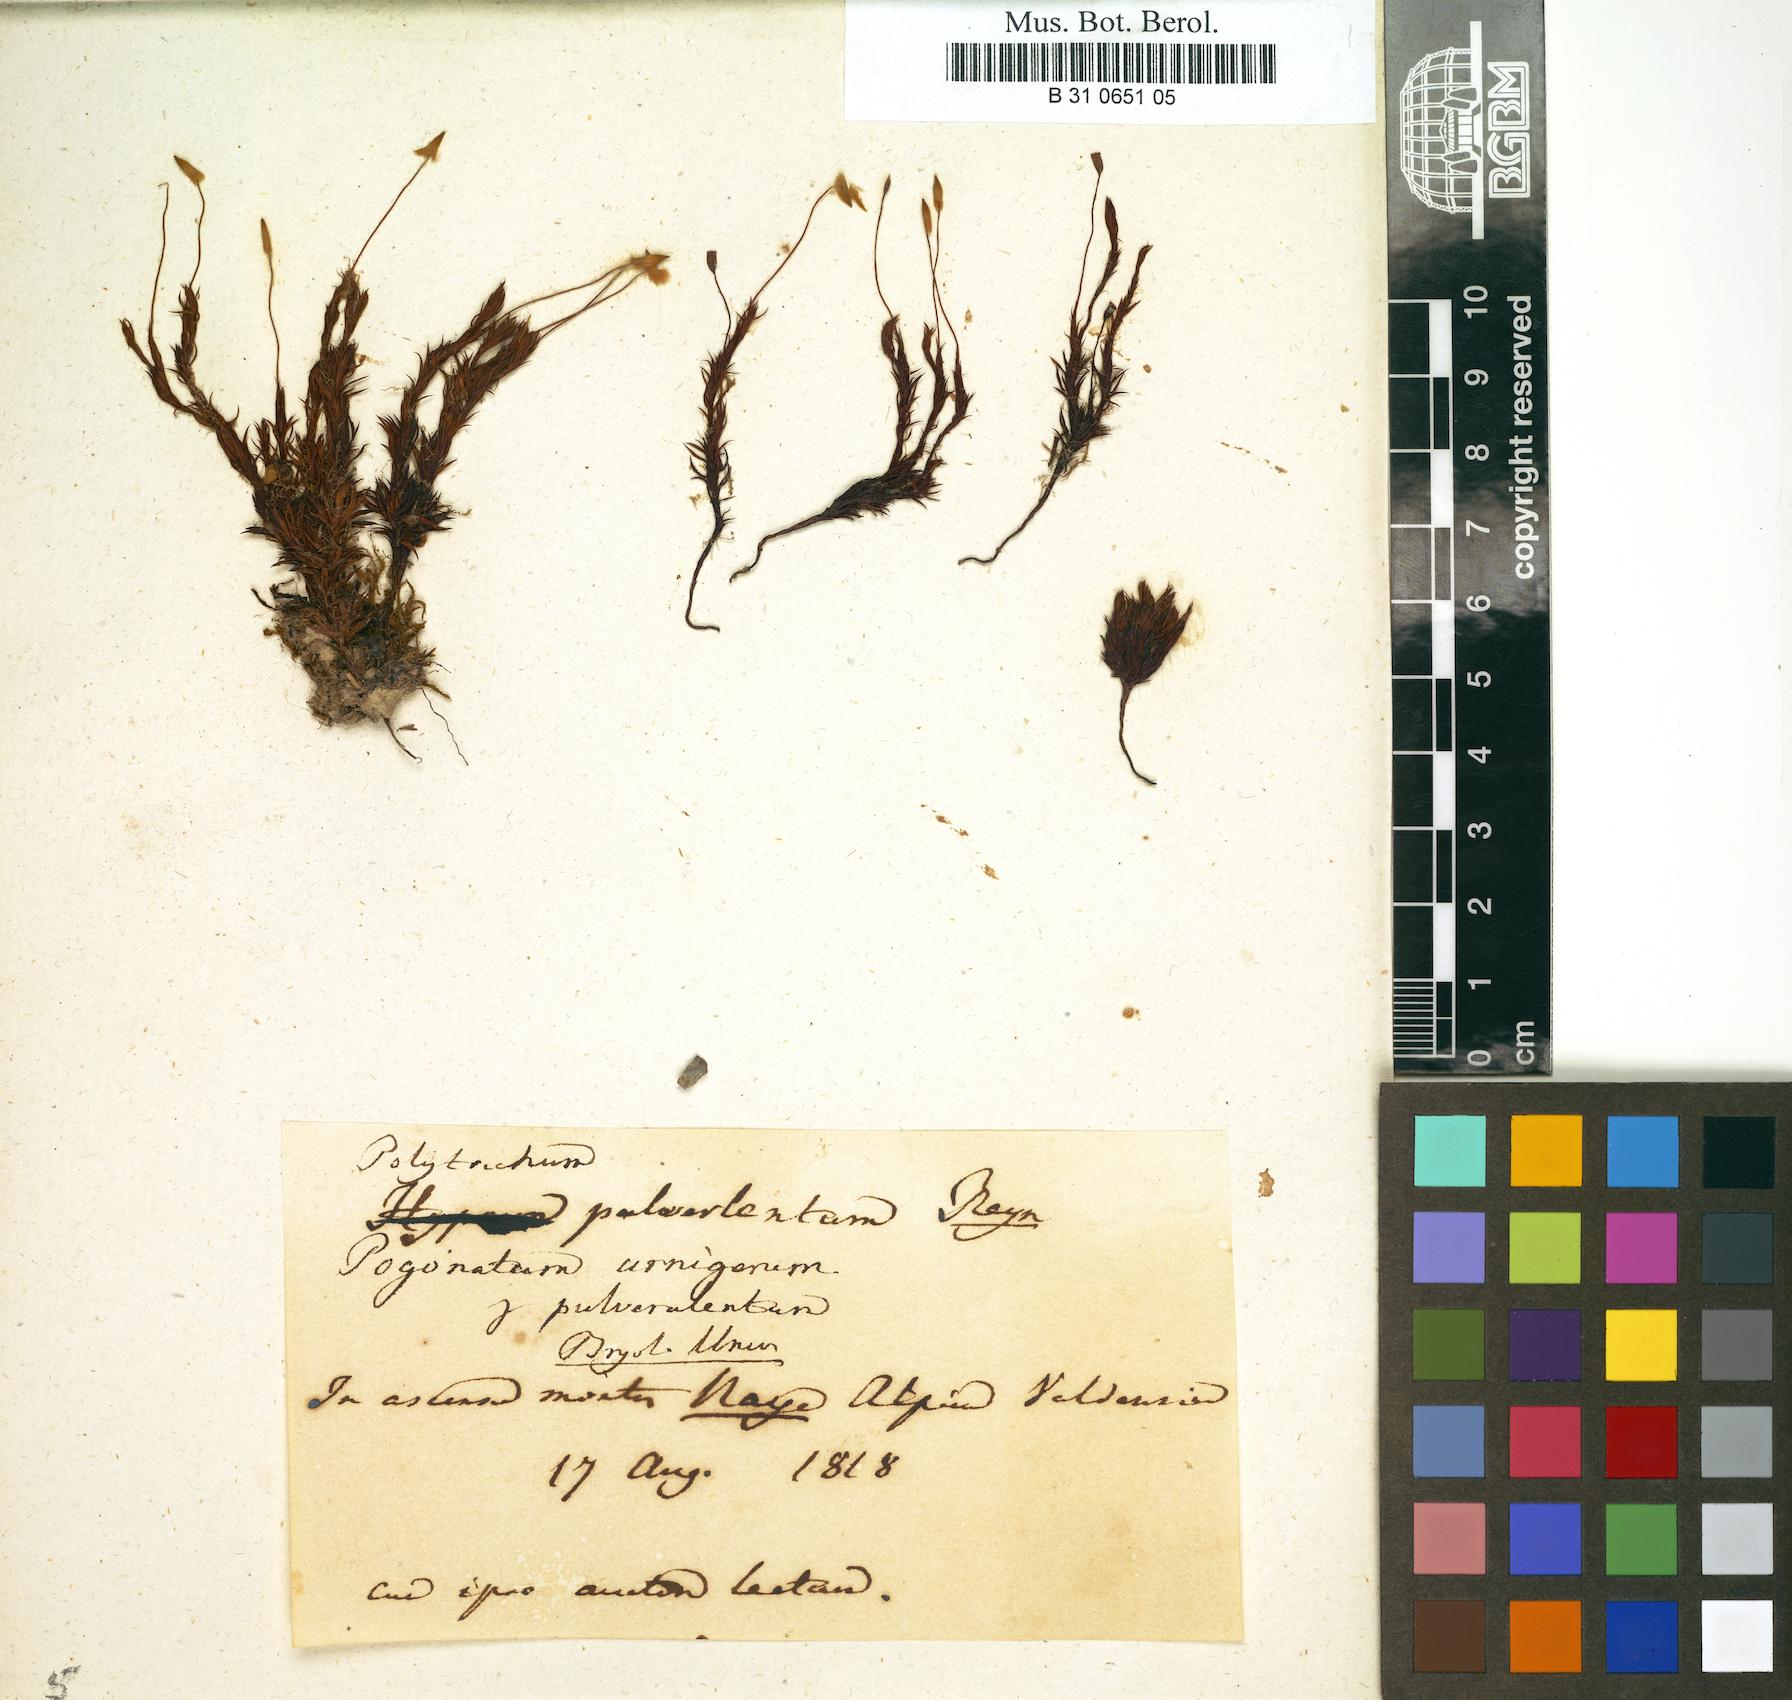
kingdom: Plantae
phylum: Bryophyta
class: Polytrichopsida
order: Polytrichales
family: Polytrichaceae
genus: Pogonatum
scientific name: Pogonatum
